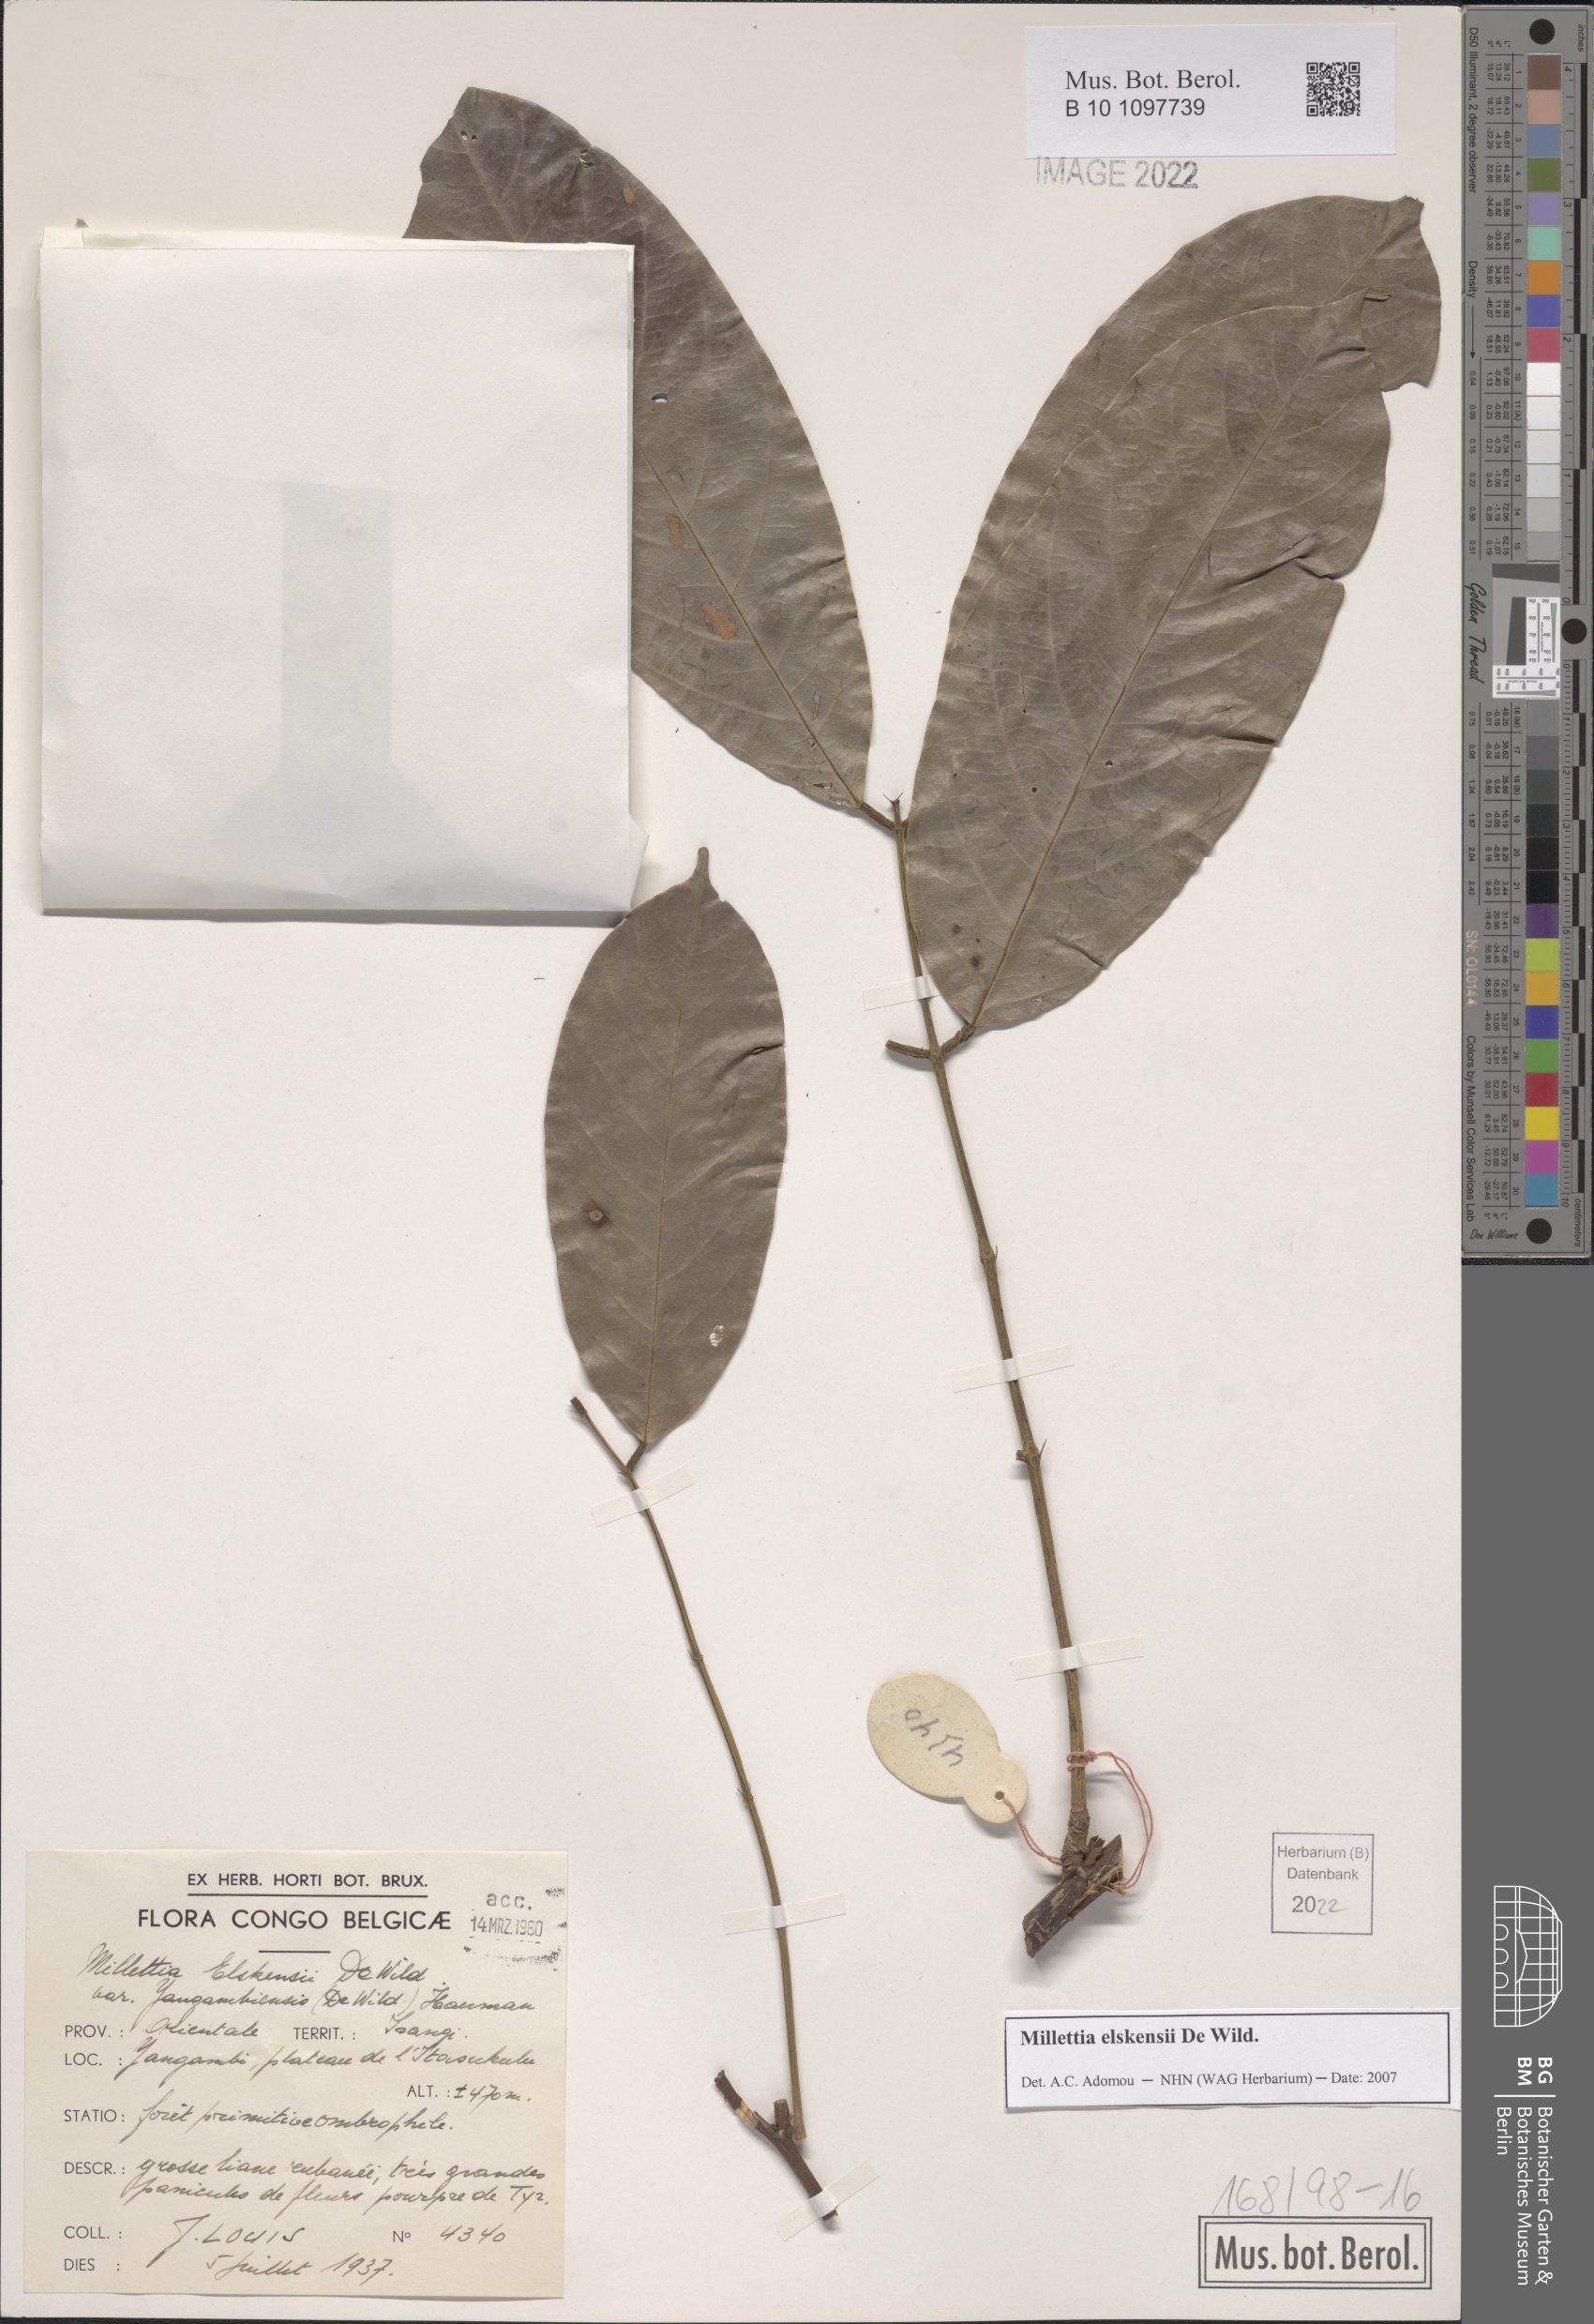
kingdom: Plantae
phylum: Tracheophyta
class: Magnoliopsida
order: Fabales
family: Fabaceae
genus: Millettia
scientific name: Millettia elskensii
